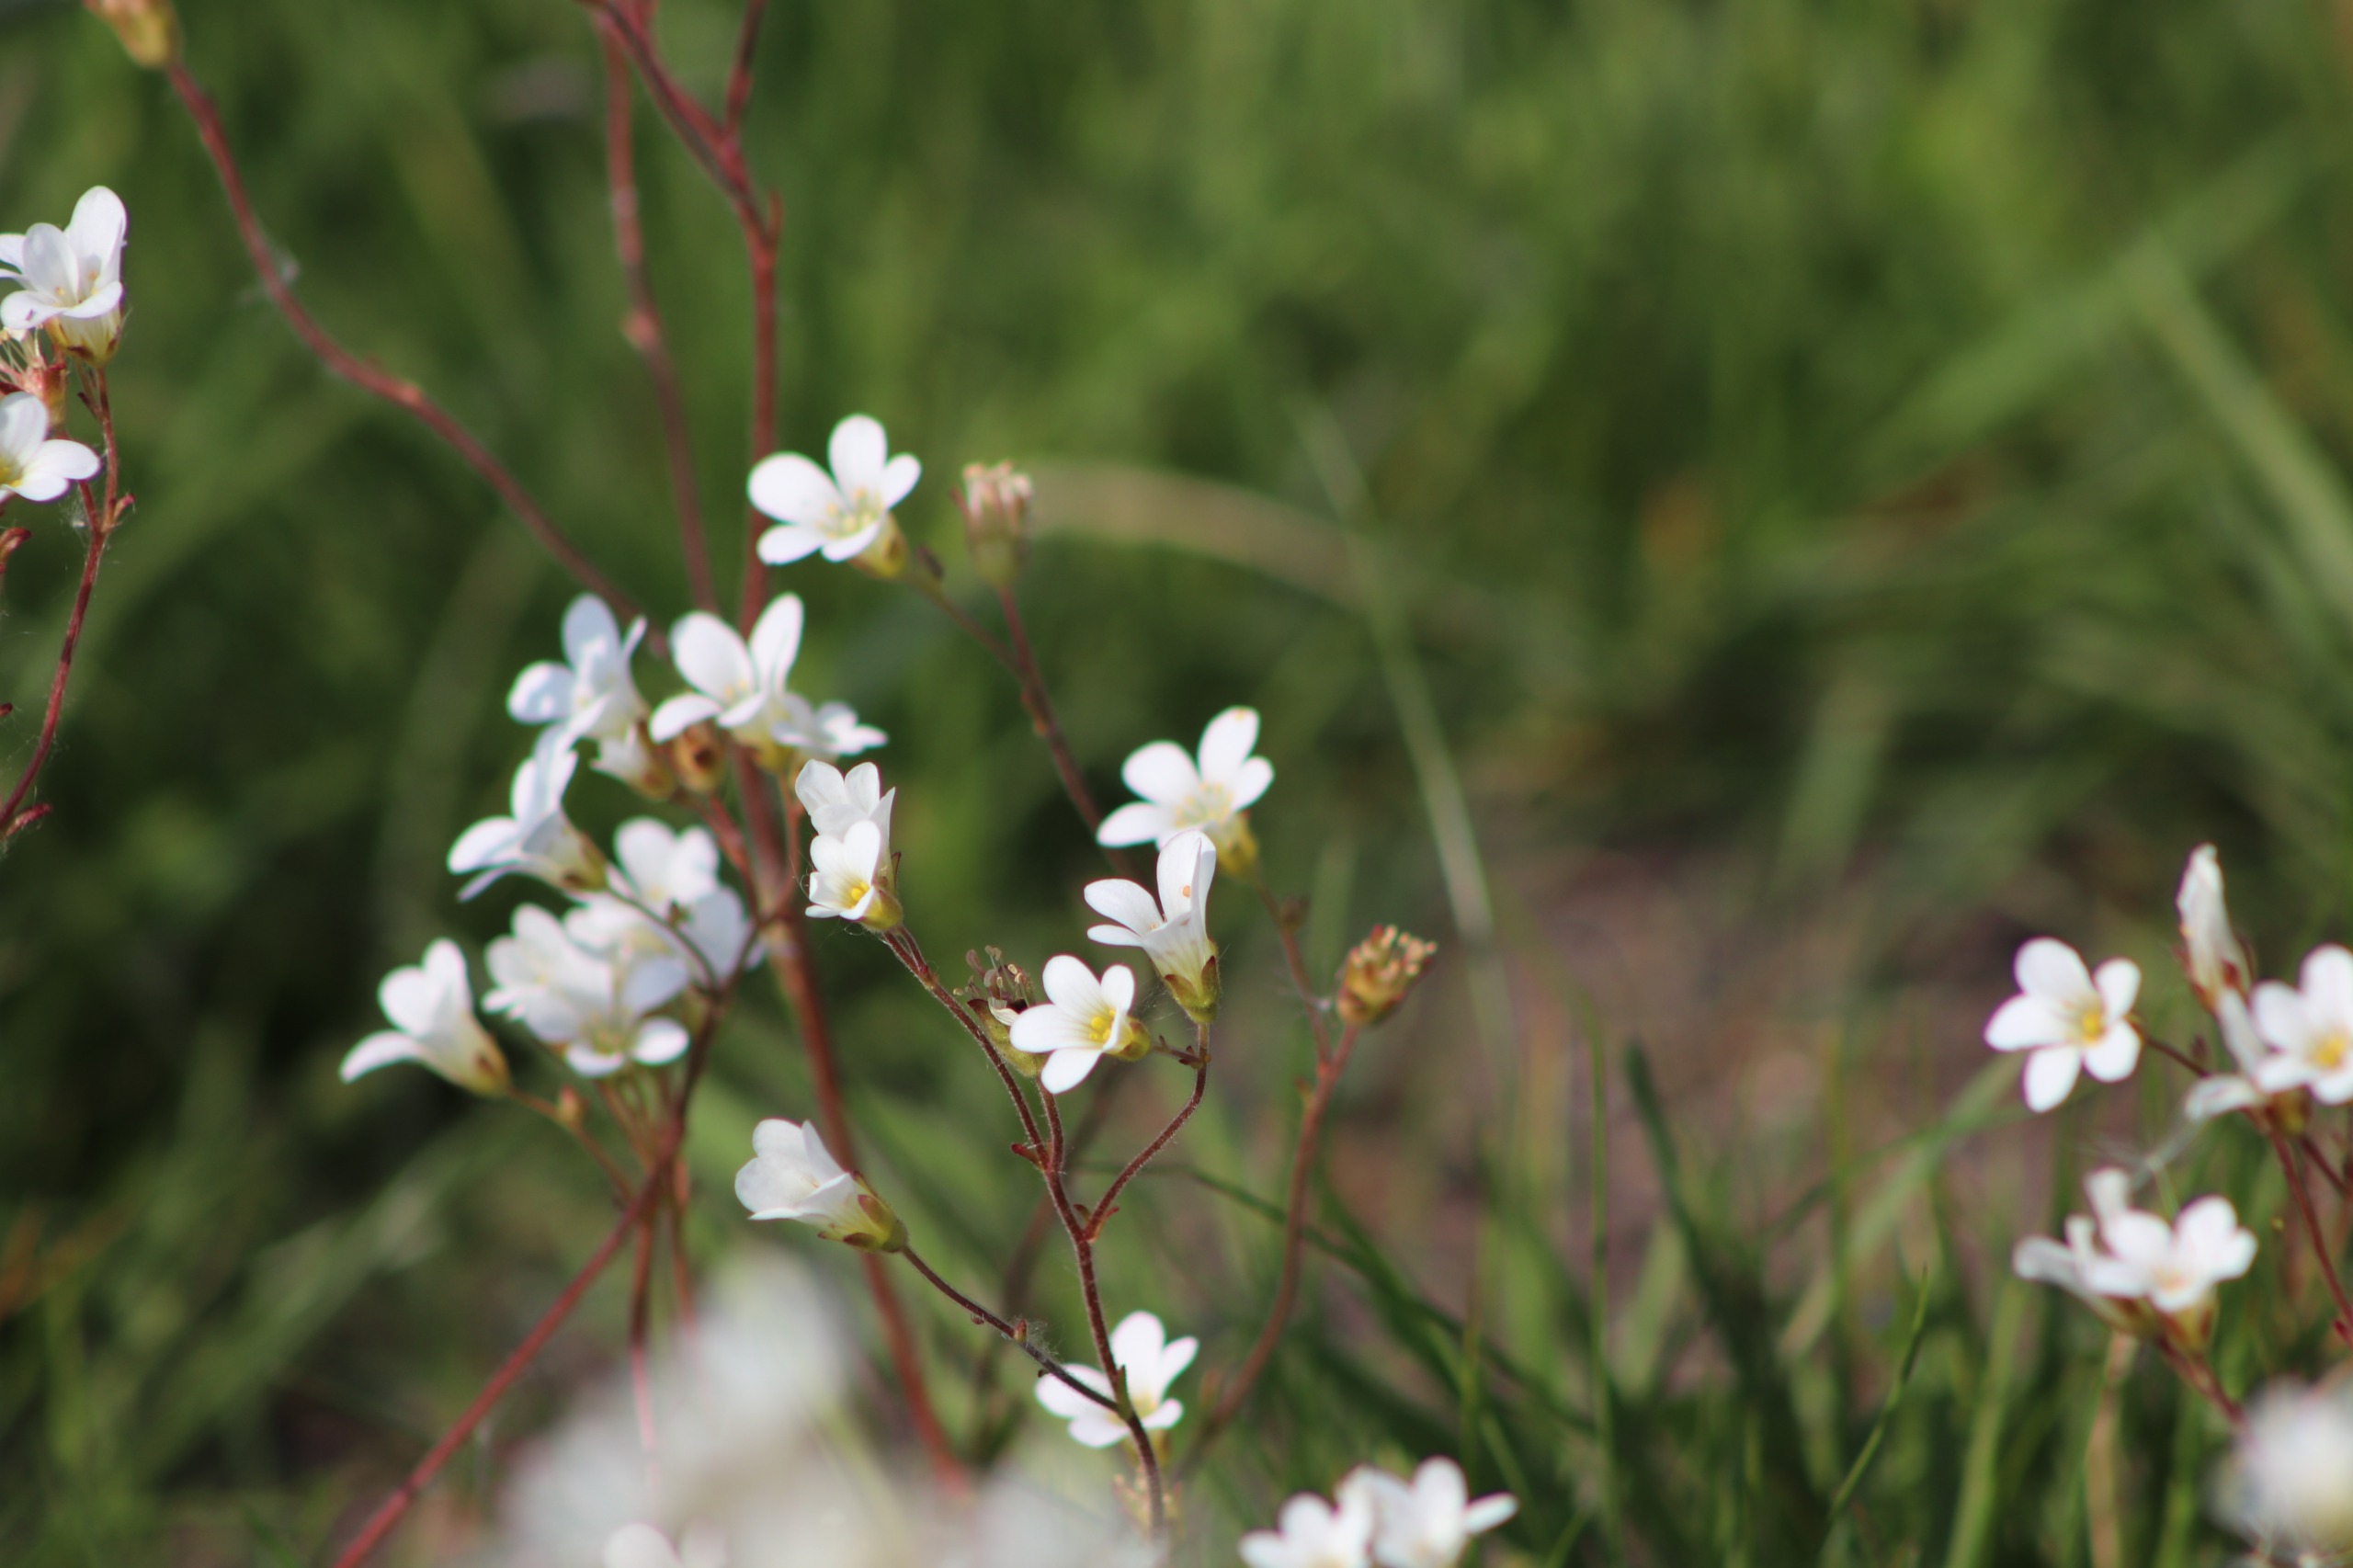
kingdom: Plantae
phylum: Tracheophyta
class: Magnoliopsida
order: Saxifragales
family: Saxifragaceae
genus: Saxifraga
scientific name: Saxifraga granulata
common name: Kornet stenbræk
